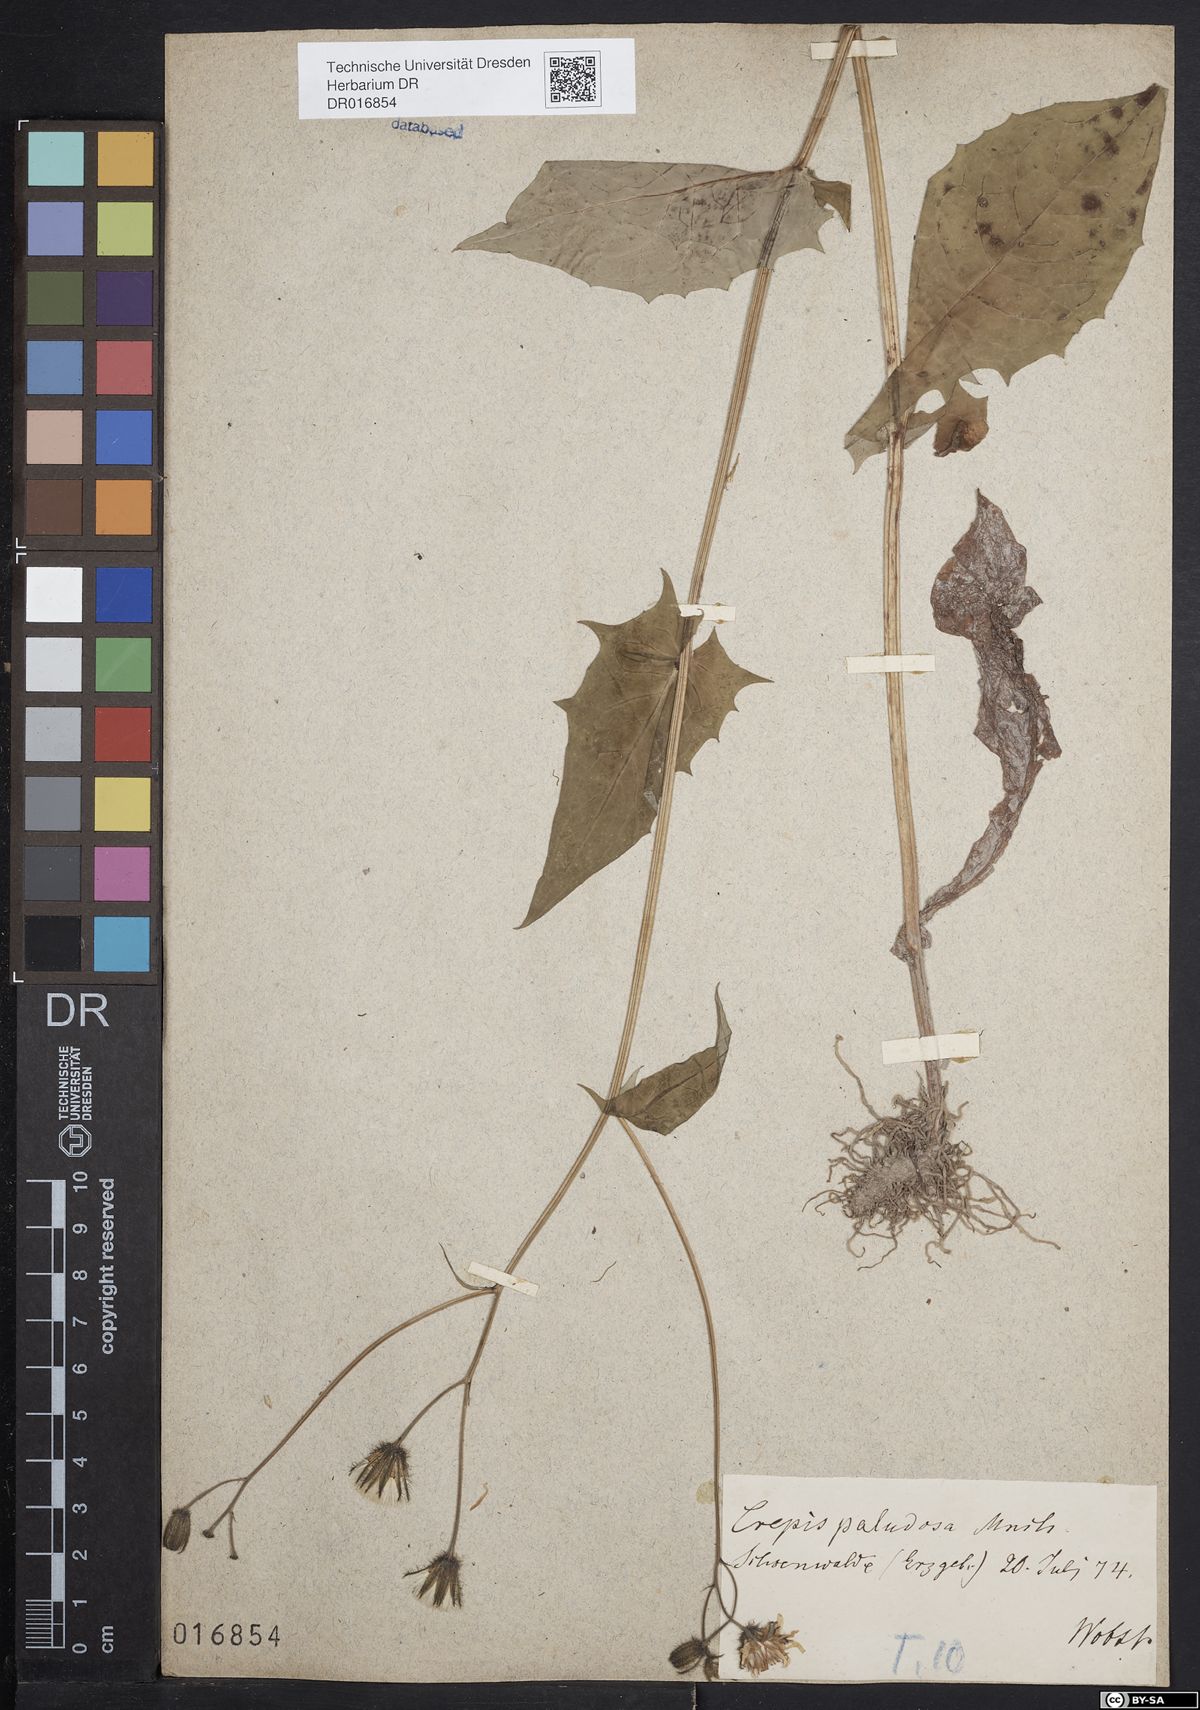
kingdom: Plantae
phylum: Tracheophyta
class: Magnoliopsida
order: Asterales
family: Asteraceae
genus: Crepis
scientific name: Crepis paludosa
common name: Marsh hawk's-beard
